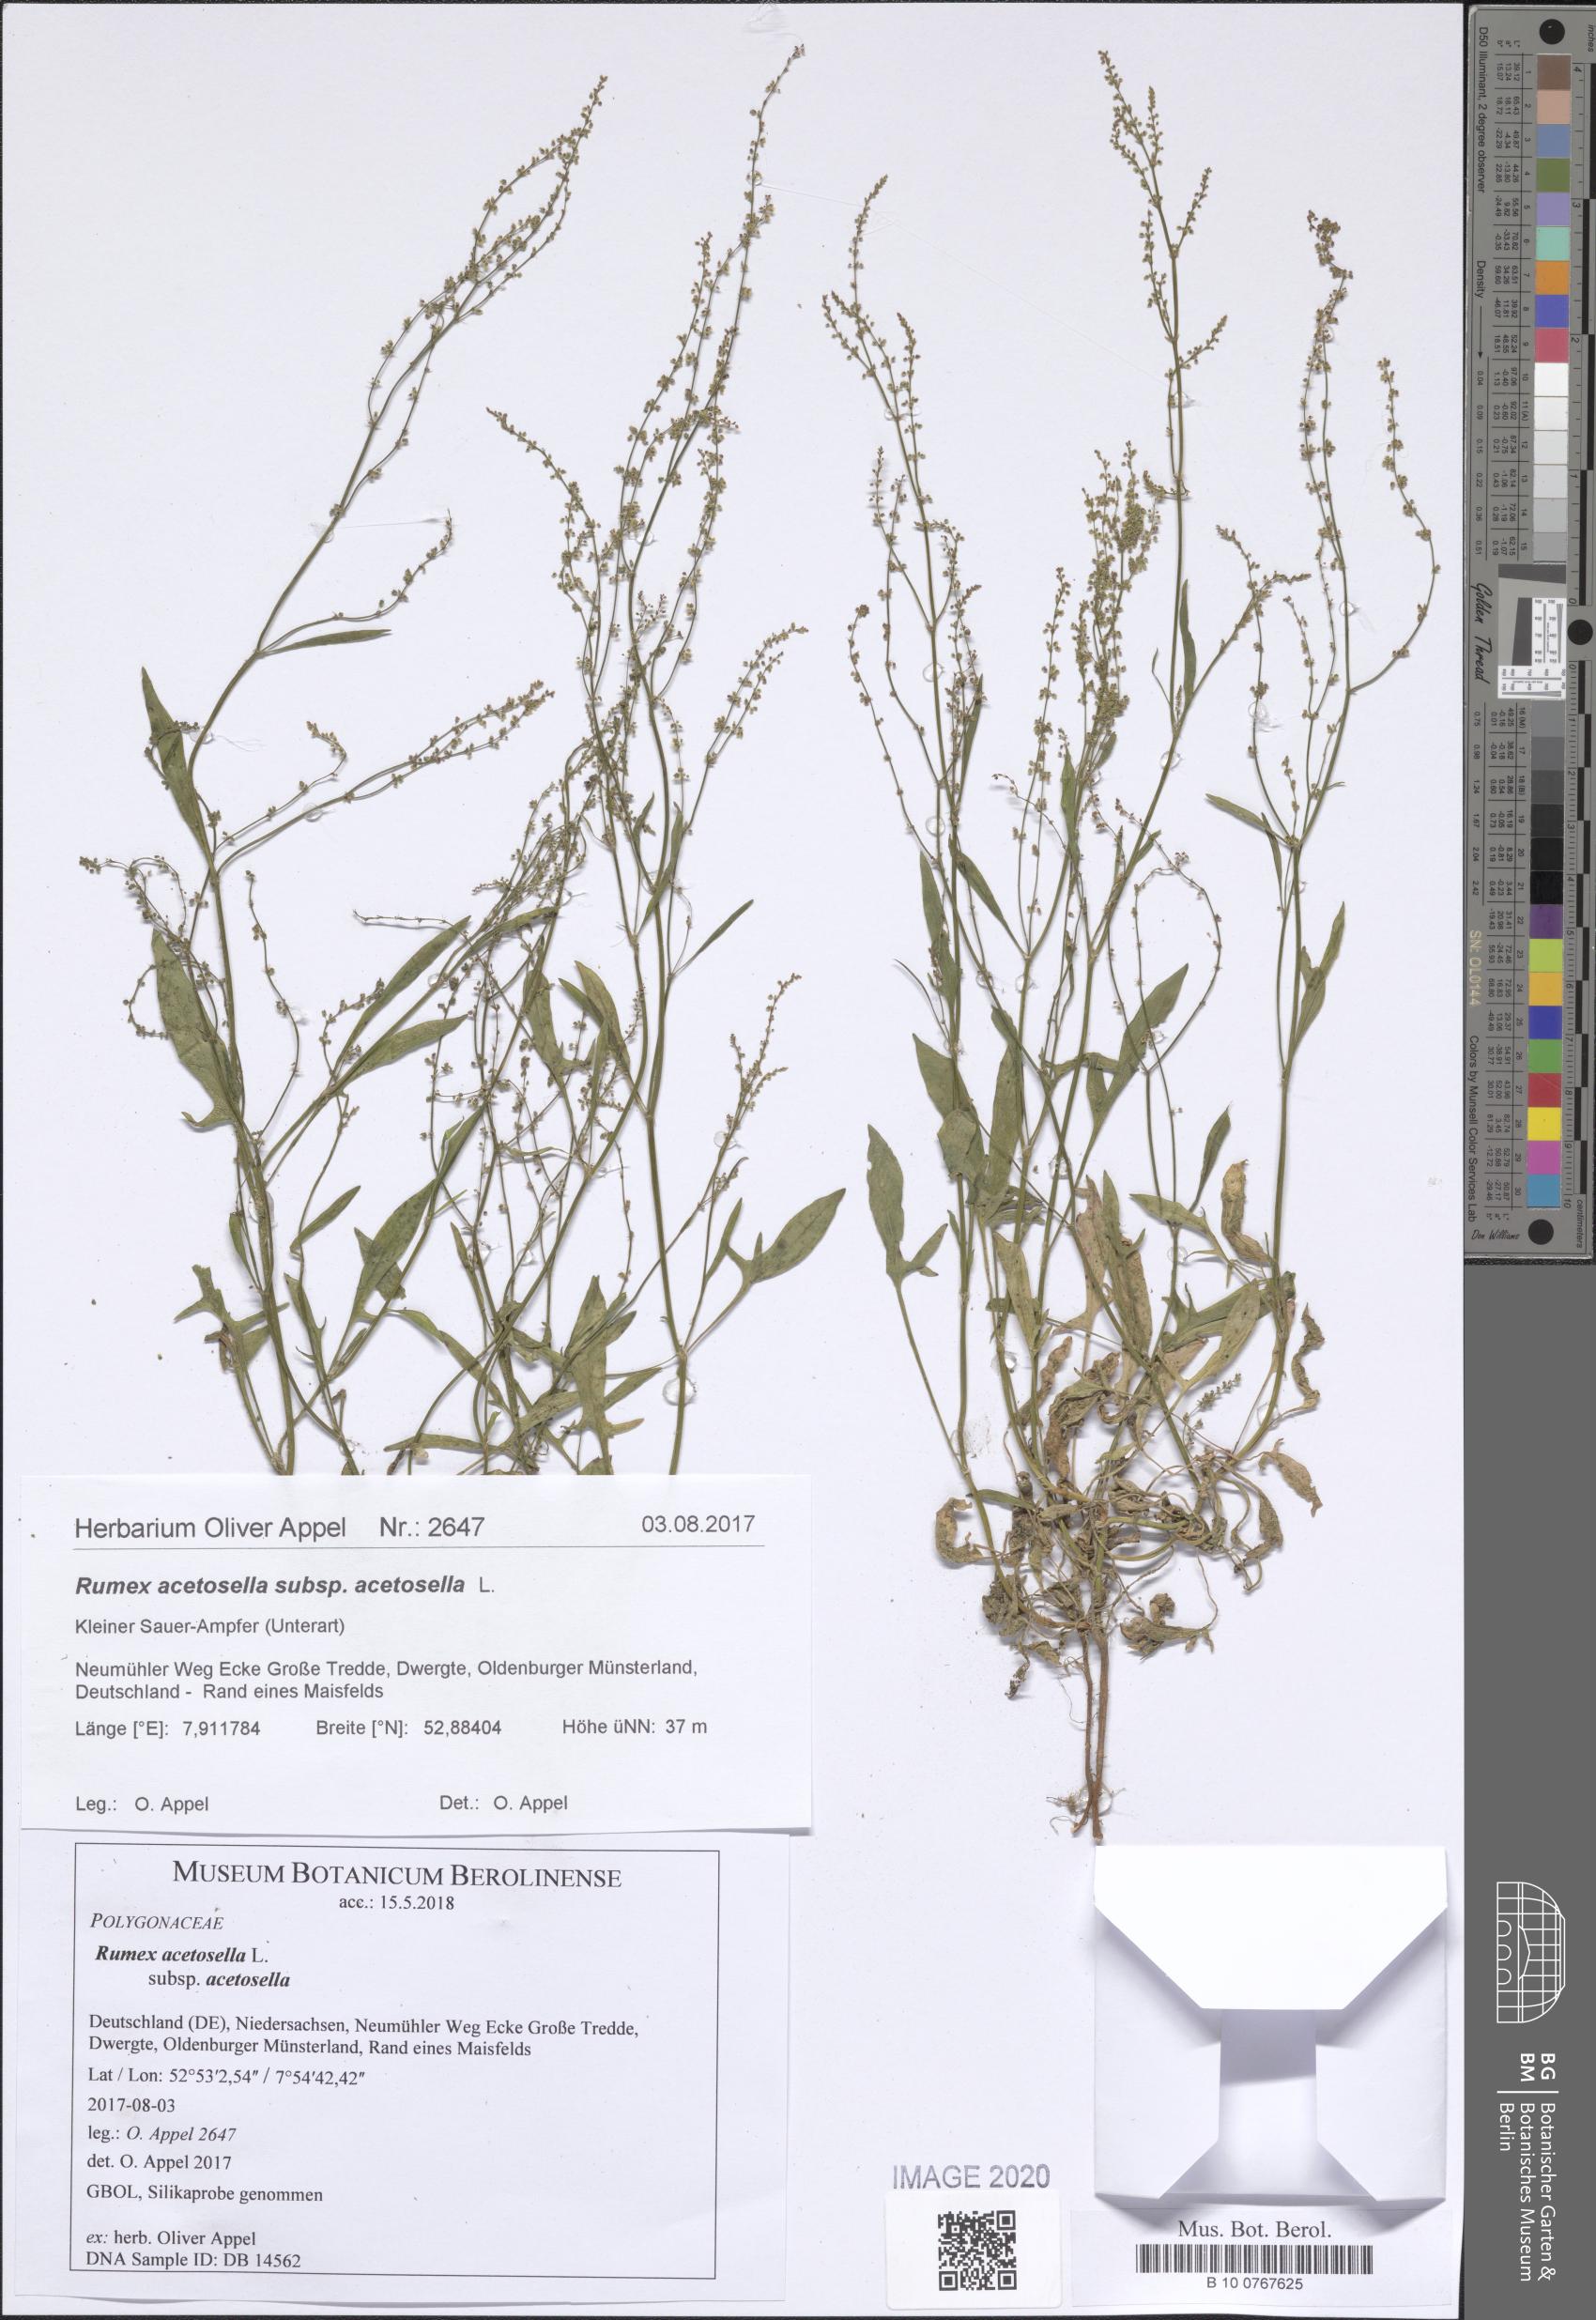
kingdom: Plantae
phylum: Tracheophyta
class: Magnoliopsida
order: Caryophyllales
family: Polygonaceae
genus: Rumex
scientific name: Rumex acetosella
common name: Common sheep sorrel
